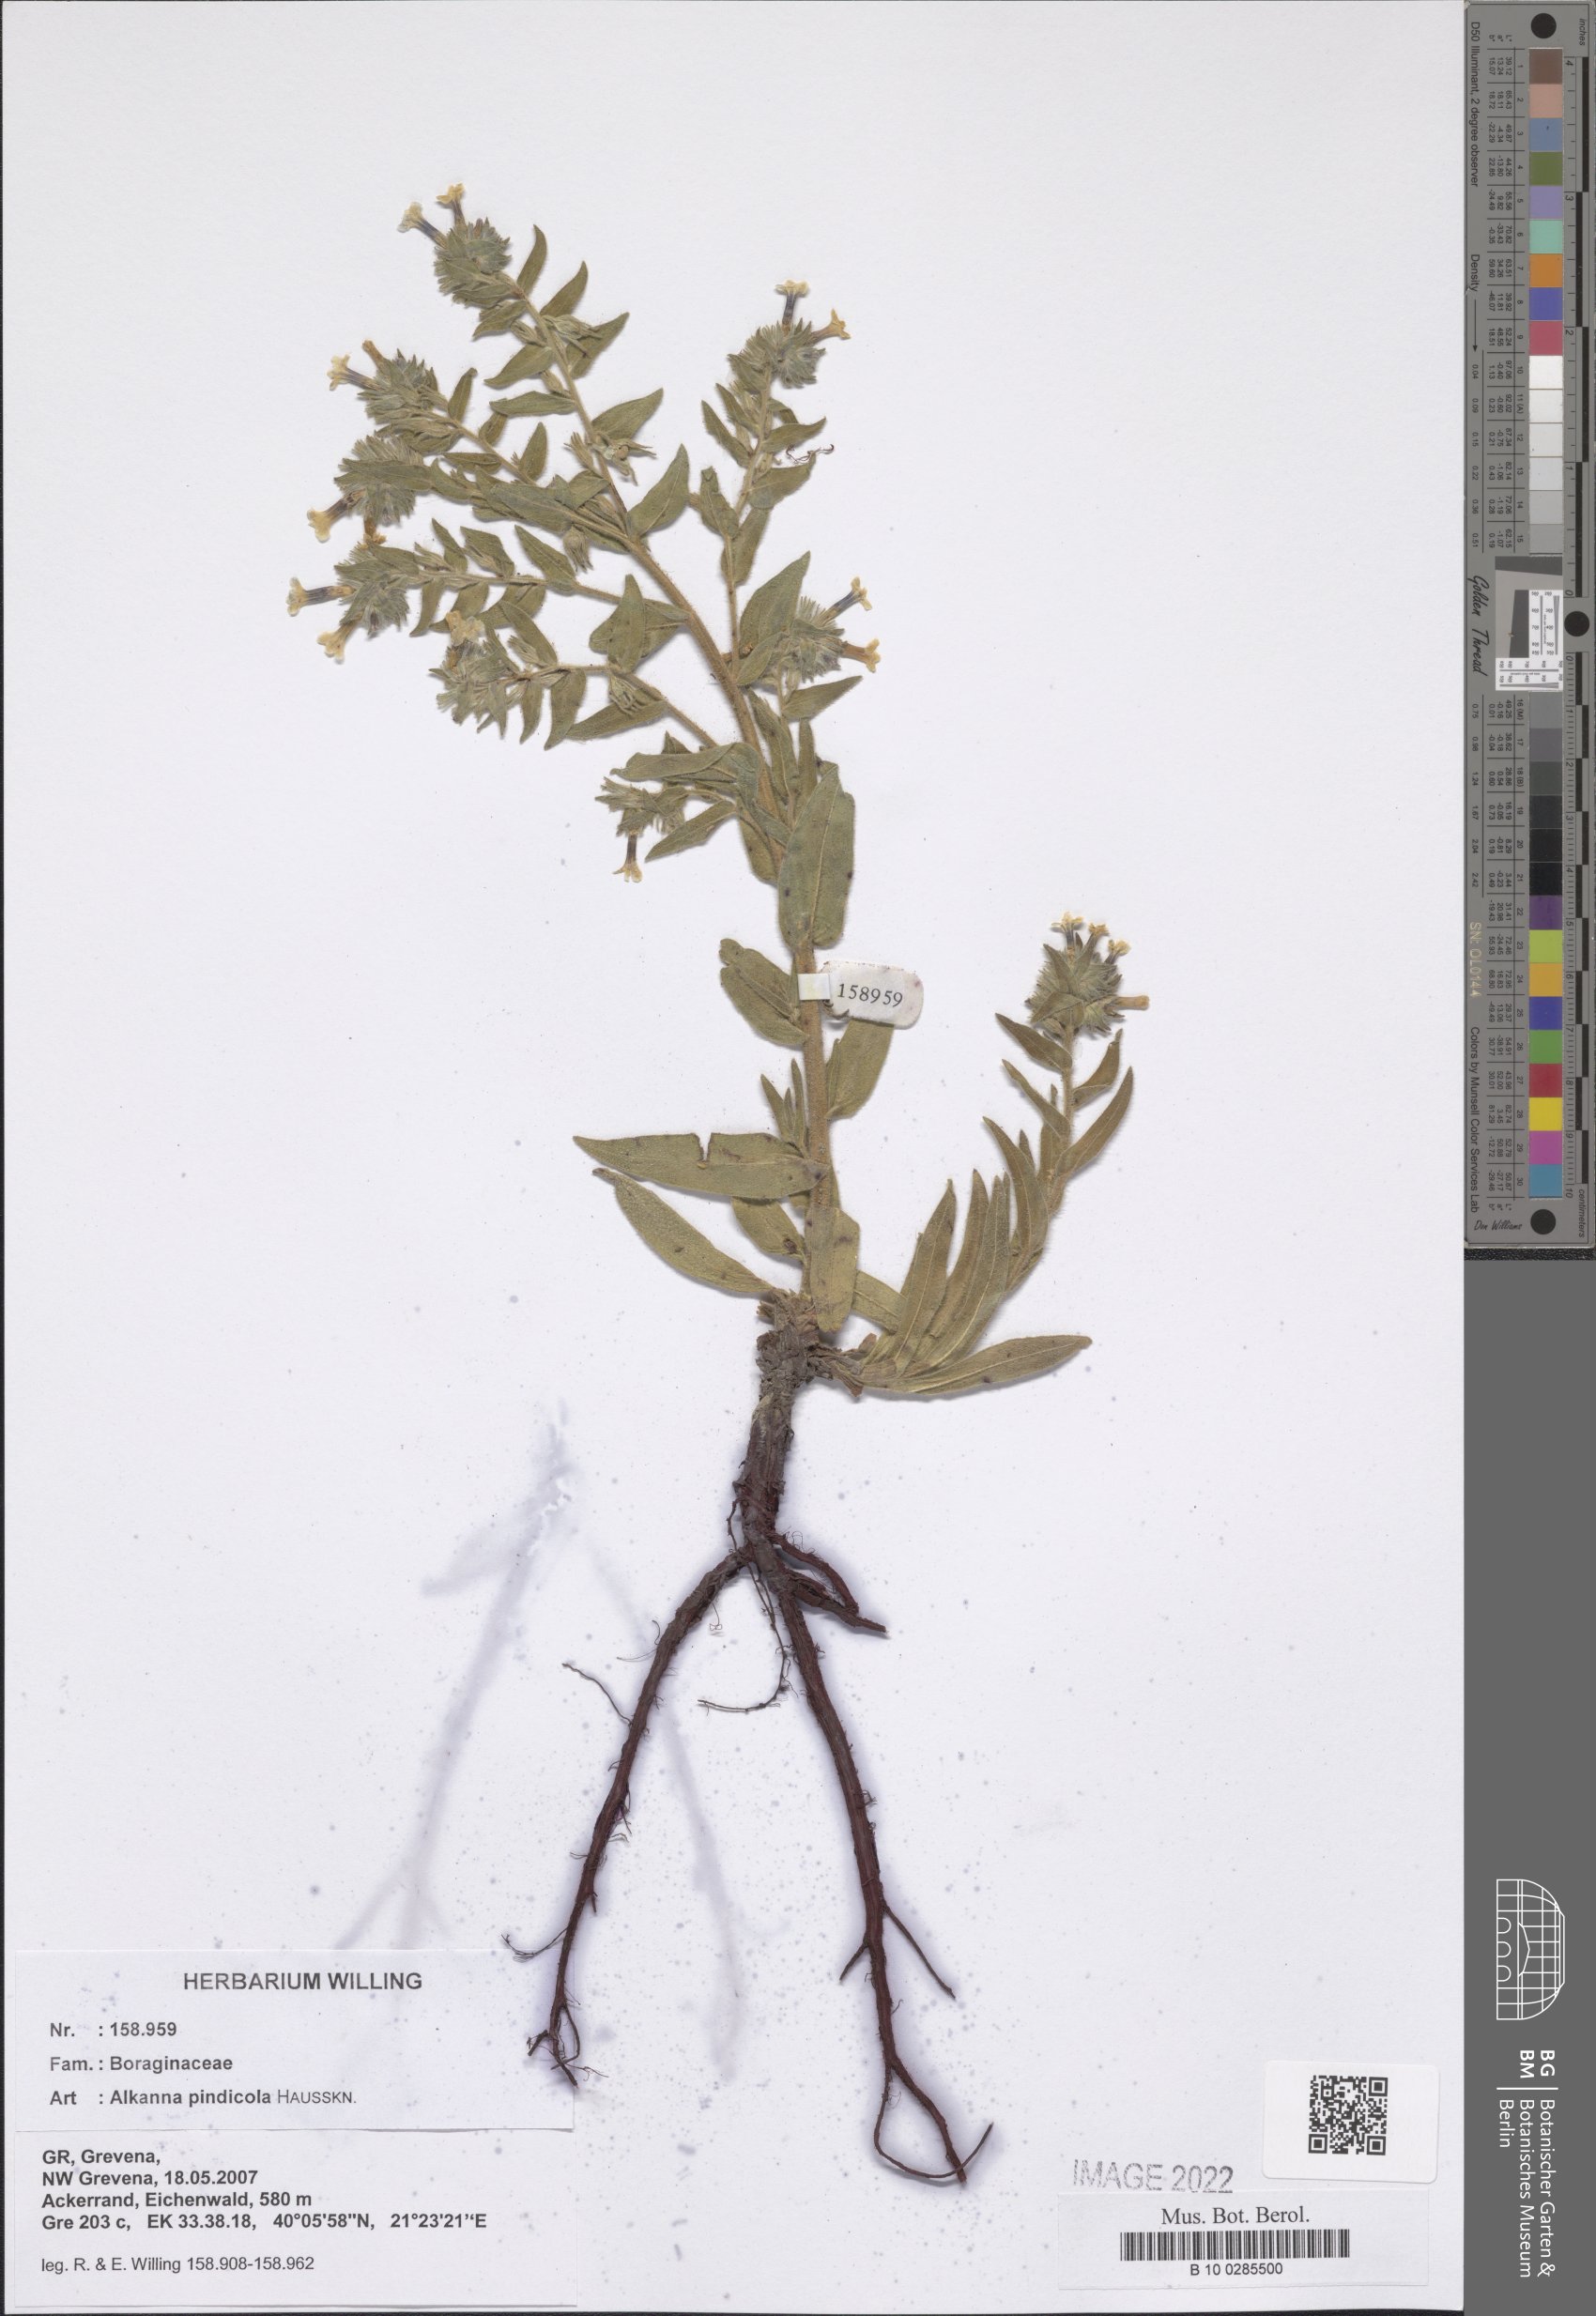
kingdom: Plantae
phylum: Tracheophyta
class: Magnoliopsida
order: Boraginales
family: Boraginaceae
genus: Alkanna
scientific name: Alkanna pindicola
